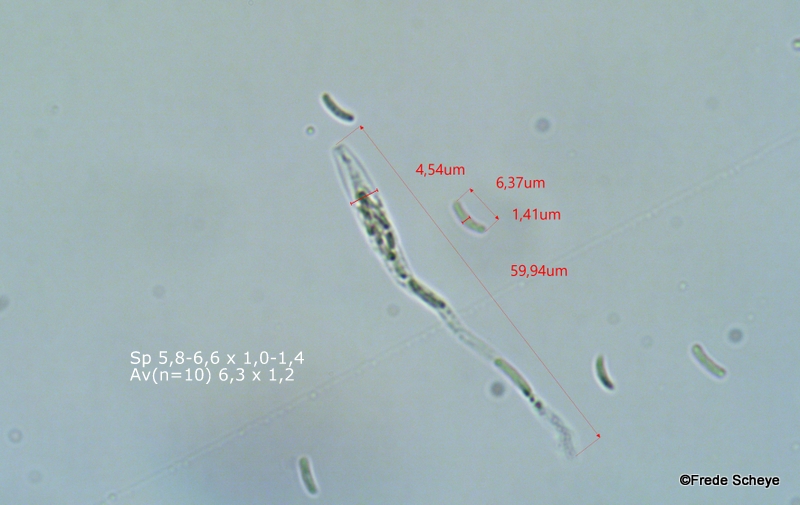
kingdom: Fungi
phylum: Ascomycota
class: Sordariomycetes
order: Xylariales
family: Diatrypaceae
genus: Diatrype
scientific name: Diatrype bullata
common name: pile-kulskorpe
